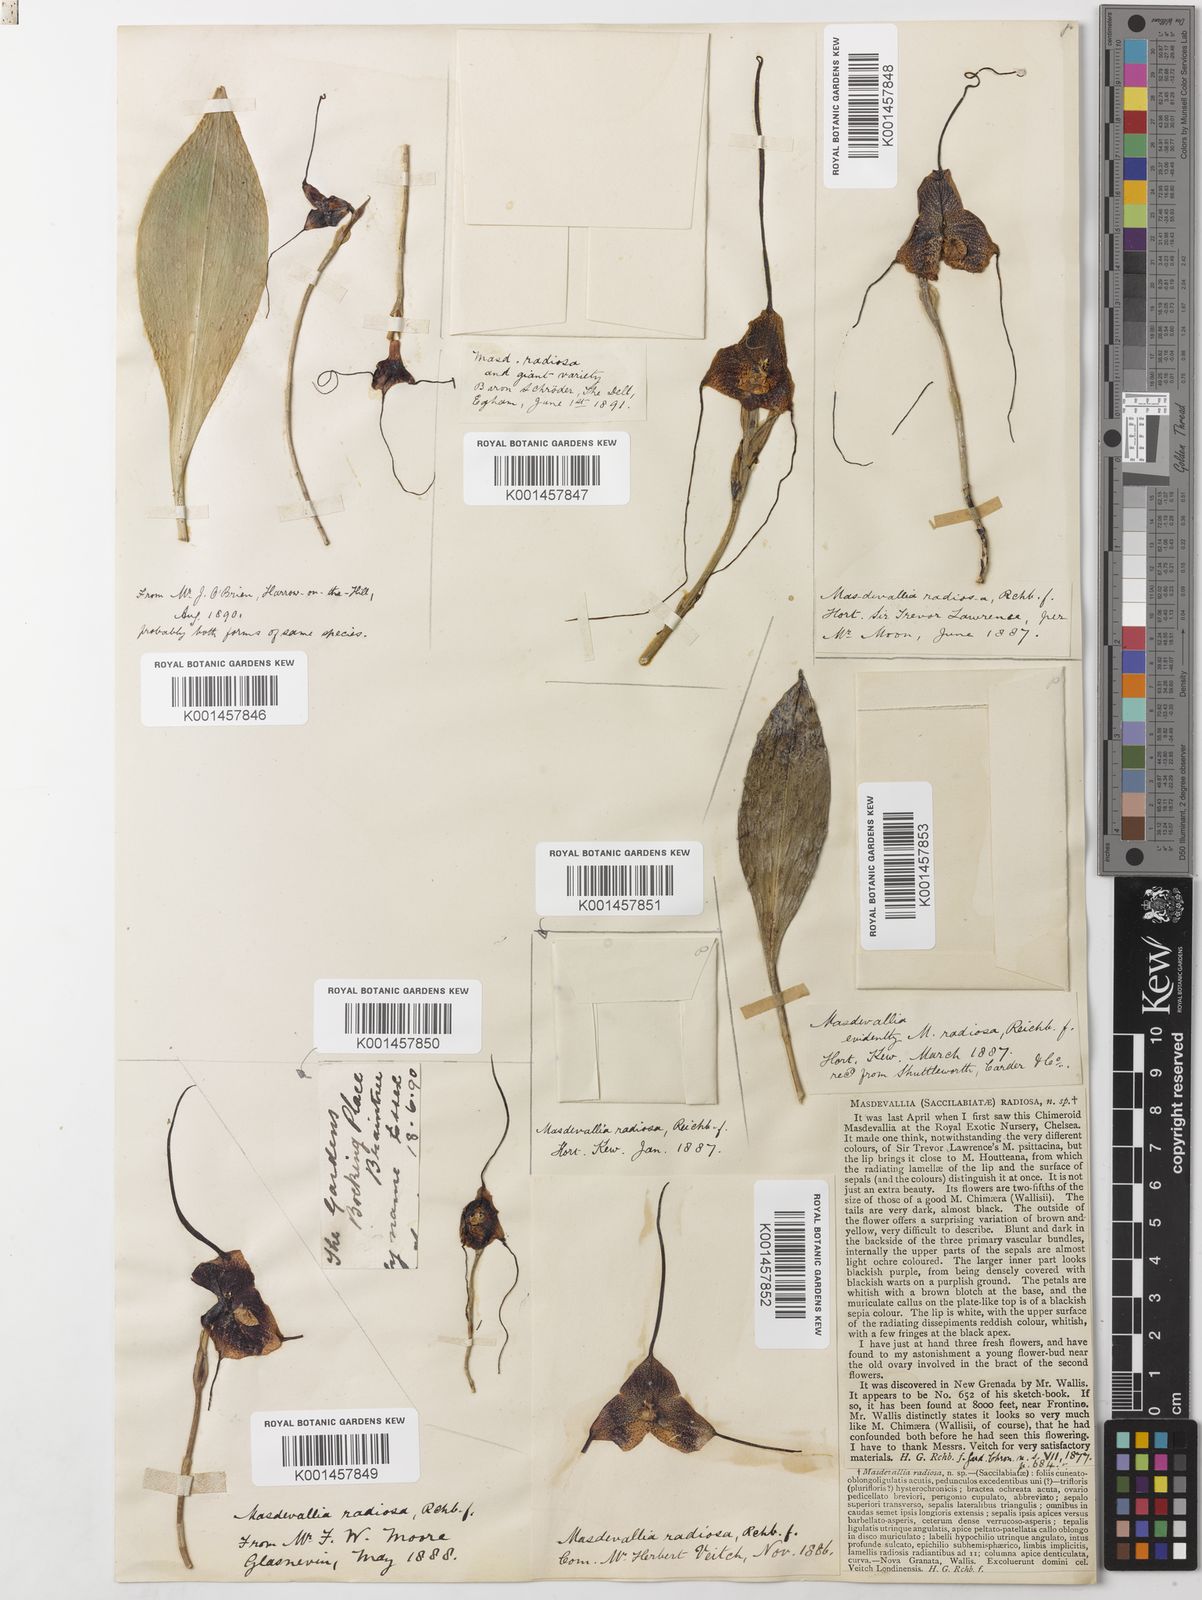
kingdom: Plantae
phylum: Tracheophyta
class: Liliopsida
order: Asparagales
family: Orchidaceae
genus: Dracula
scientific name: Dracula radiosa
